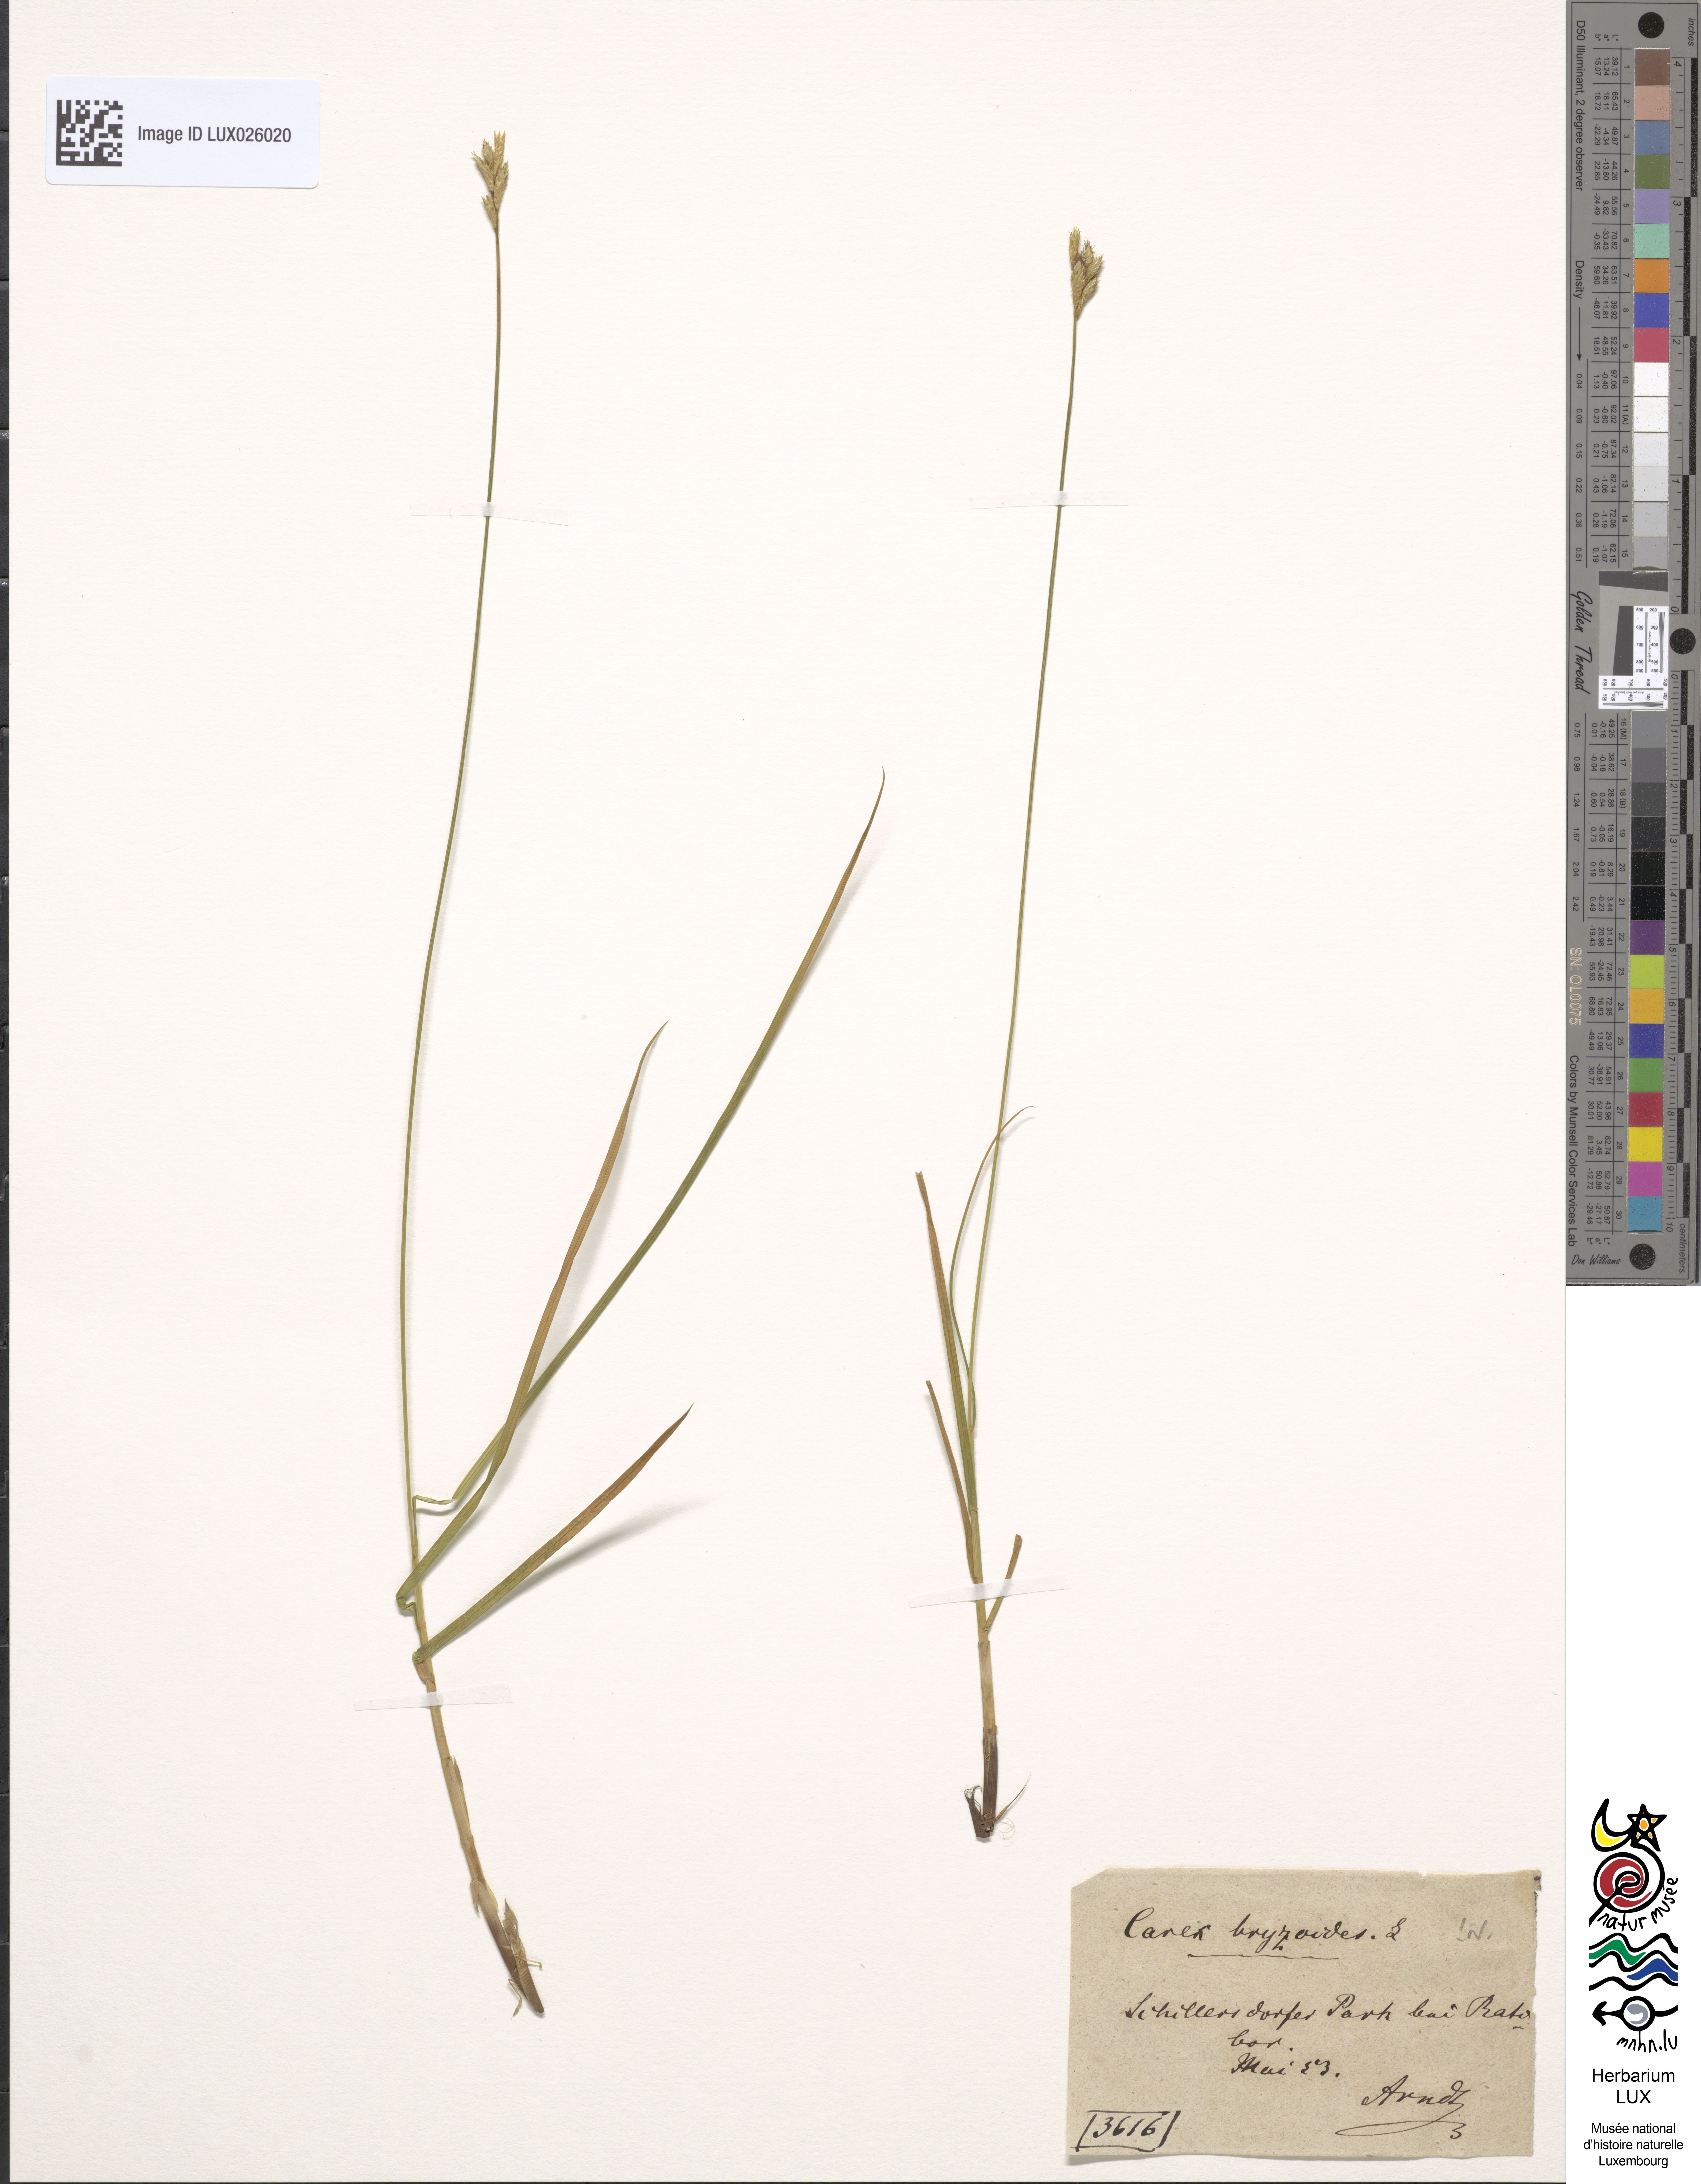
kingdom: Plantae
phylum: Tracheophyta
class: Liliopsida
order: Poales
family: Cyperaceae
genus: Carex
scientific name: Carex brizoides
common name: Quaking-grass sedge
